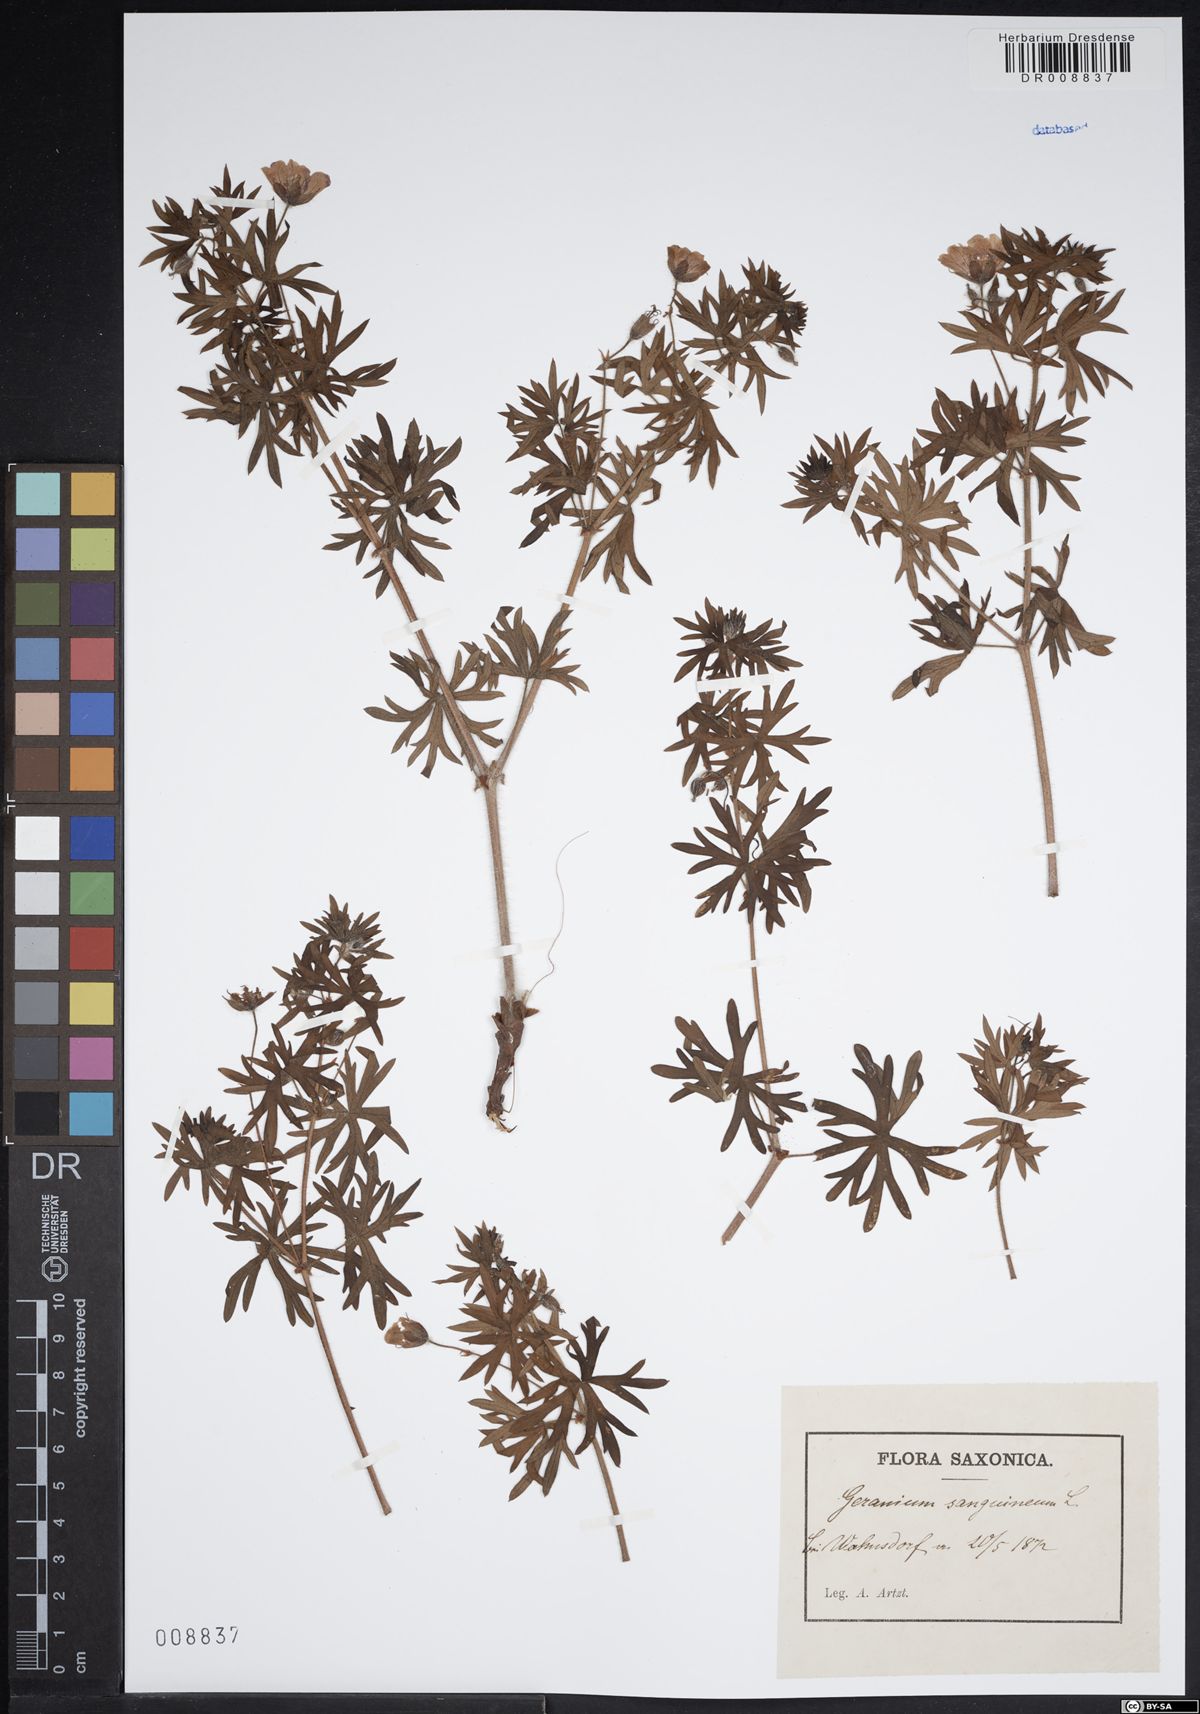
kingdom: Plantae
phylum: Tracheophyta
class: Magnoliopsida
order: Geraniales
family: Geraniaceae
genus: Geranium
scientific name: Geranium sanguineum
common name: Bloody crane's-bill
